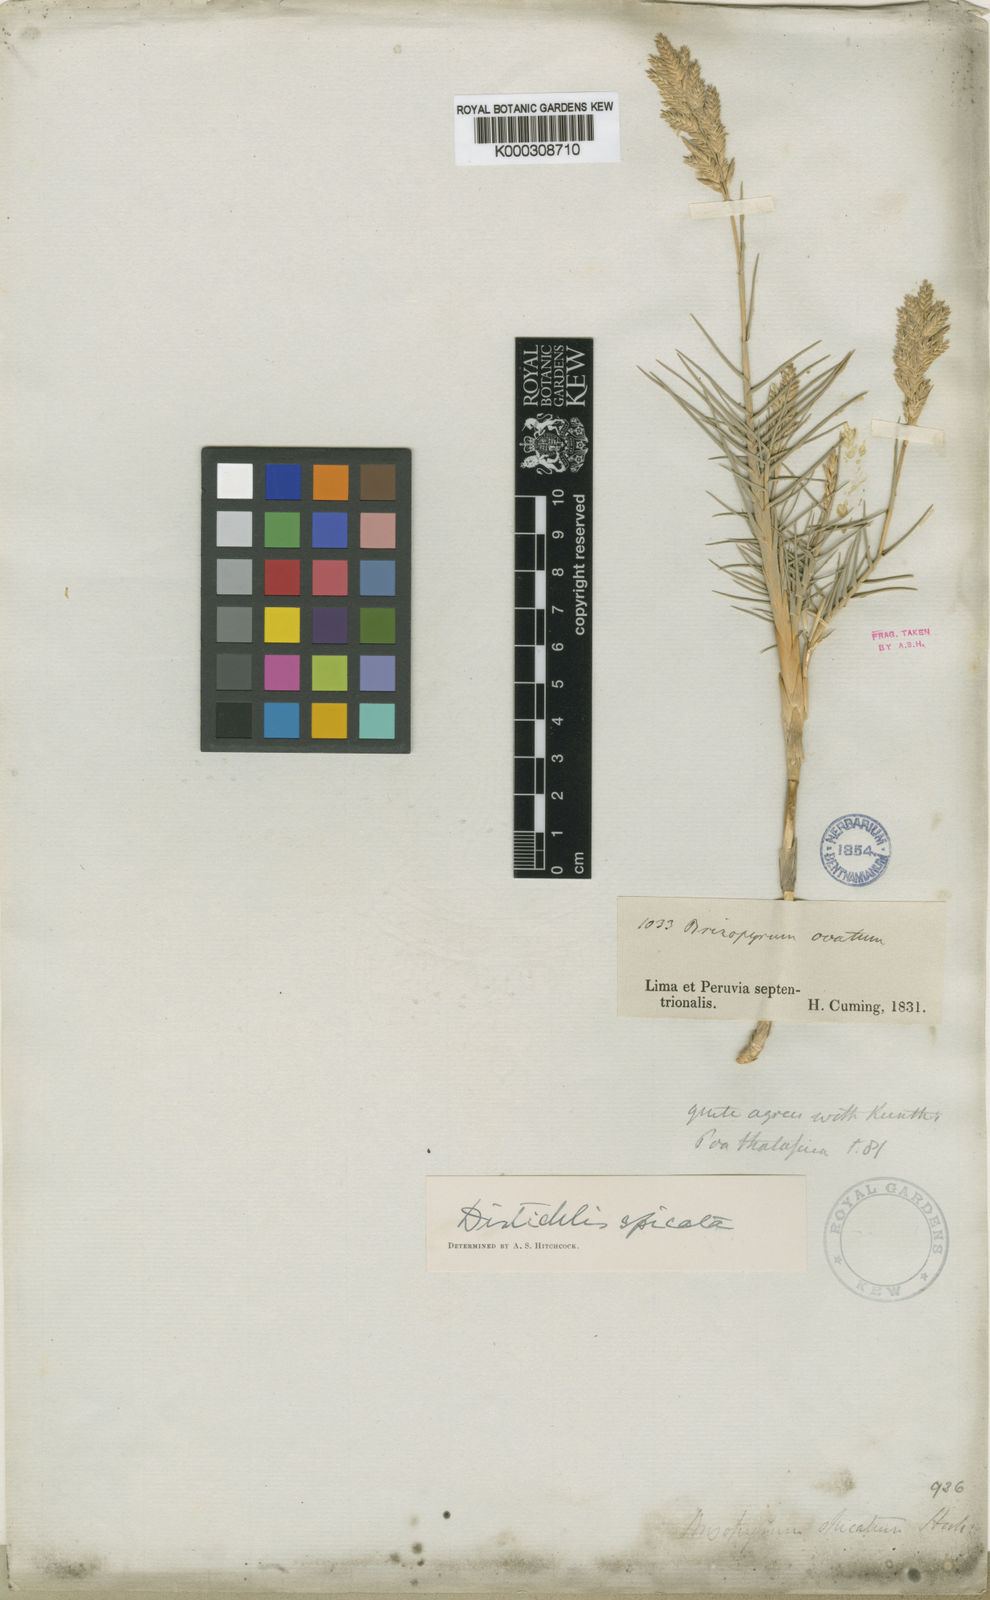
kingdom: Plantae
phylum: Tracheophyta
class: Liliopsida
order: Poales
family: Poaceae
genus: Distichlis
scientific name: Distichlis spicata
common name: Saltgrass
